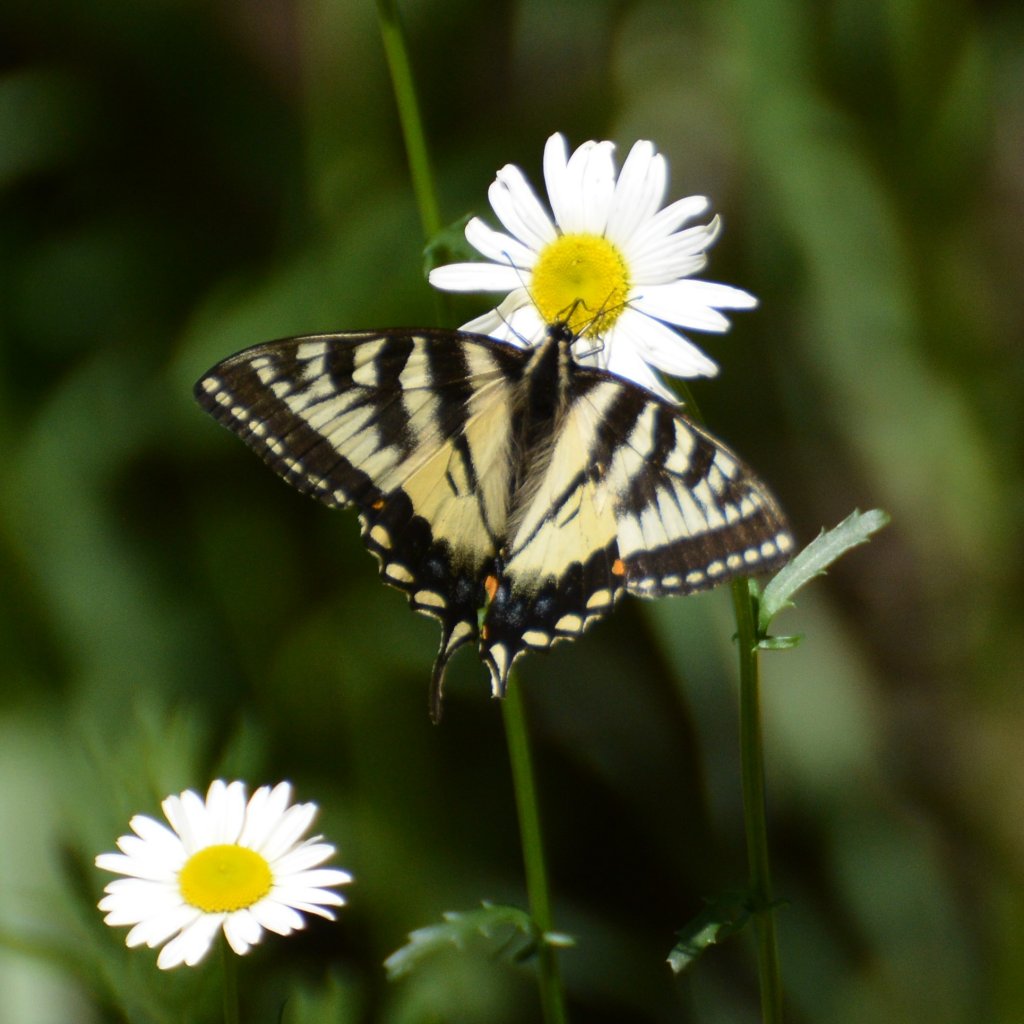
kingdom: Animalia
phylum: Arthropoda
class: Insecta
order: Lepidoptera
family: Papilionidae
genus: Pterourus
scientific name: Pterourus canadensis
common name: Canadian Tiger Swallowtail
